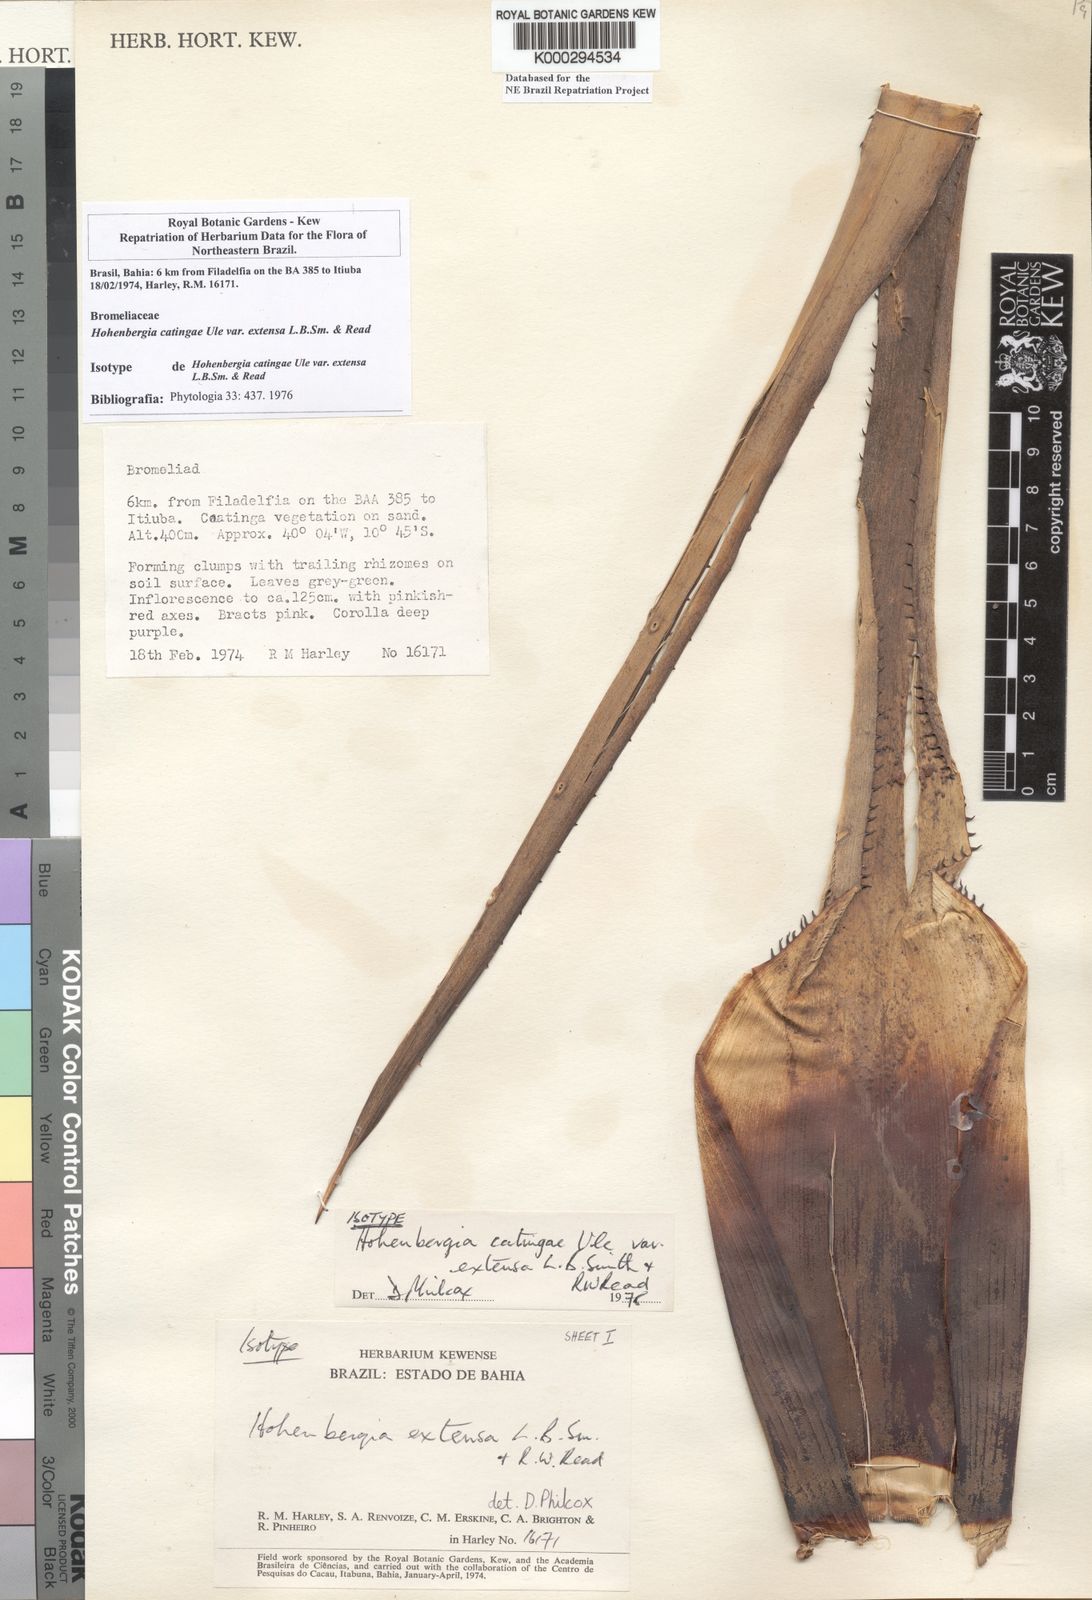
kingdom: Plantae
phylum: Tracheophyta
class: Liliopsida
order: Poales
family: Bromeliaceae
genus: Hohenbergia
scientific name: Hohenbergia catingae
